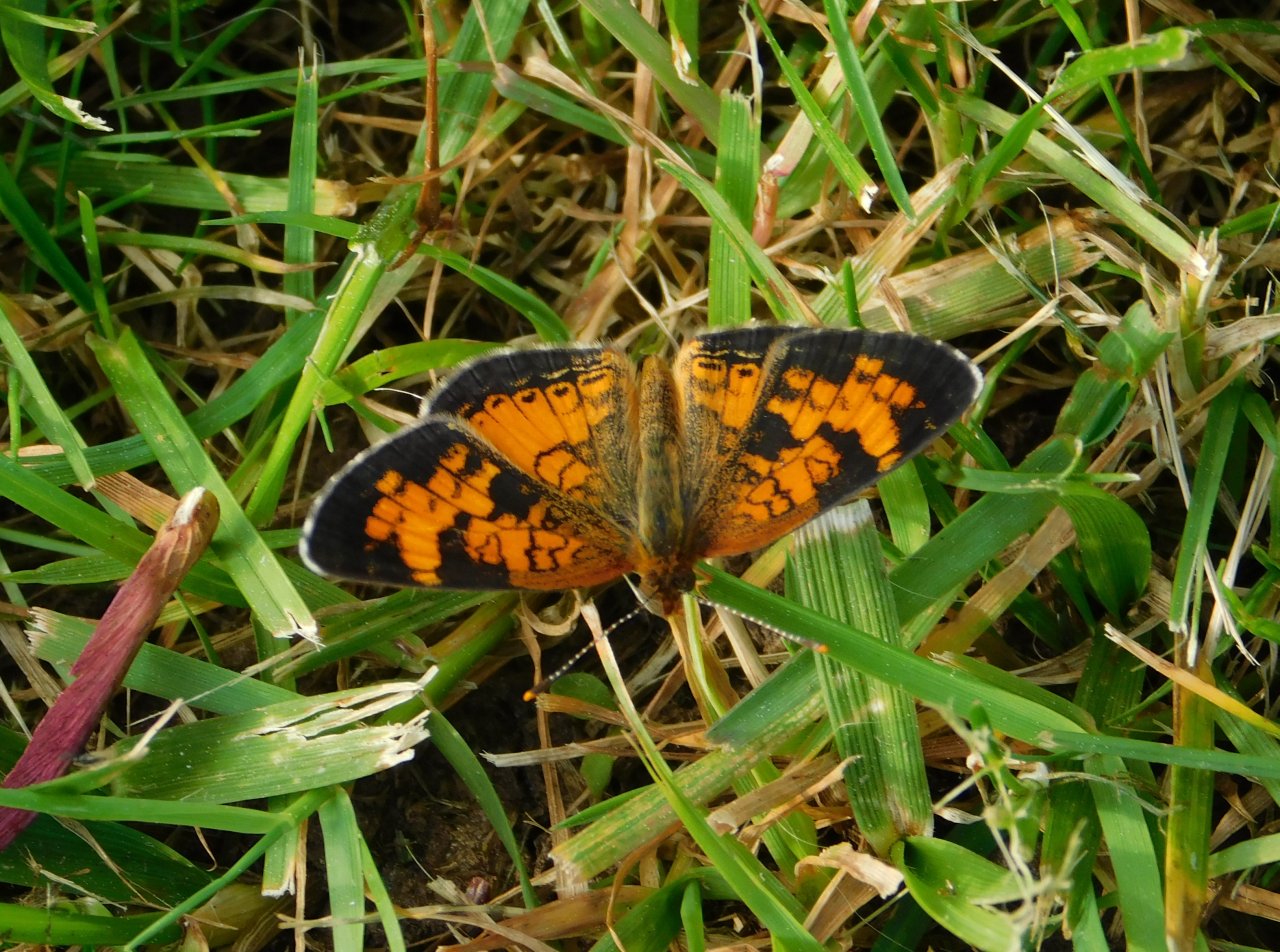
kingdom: Animalia
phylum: Arthropoda
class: Insecta
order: Lepidoptera
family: Nymphalidae
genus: Phyciodes
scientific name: Phyciodes tharos
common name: Northern Crescent
